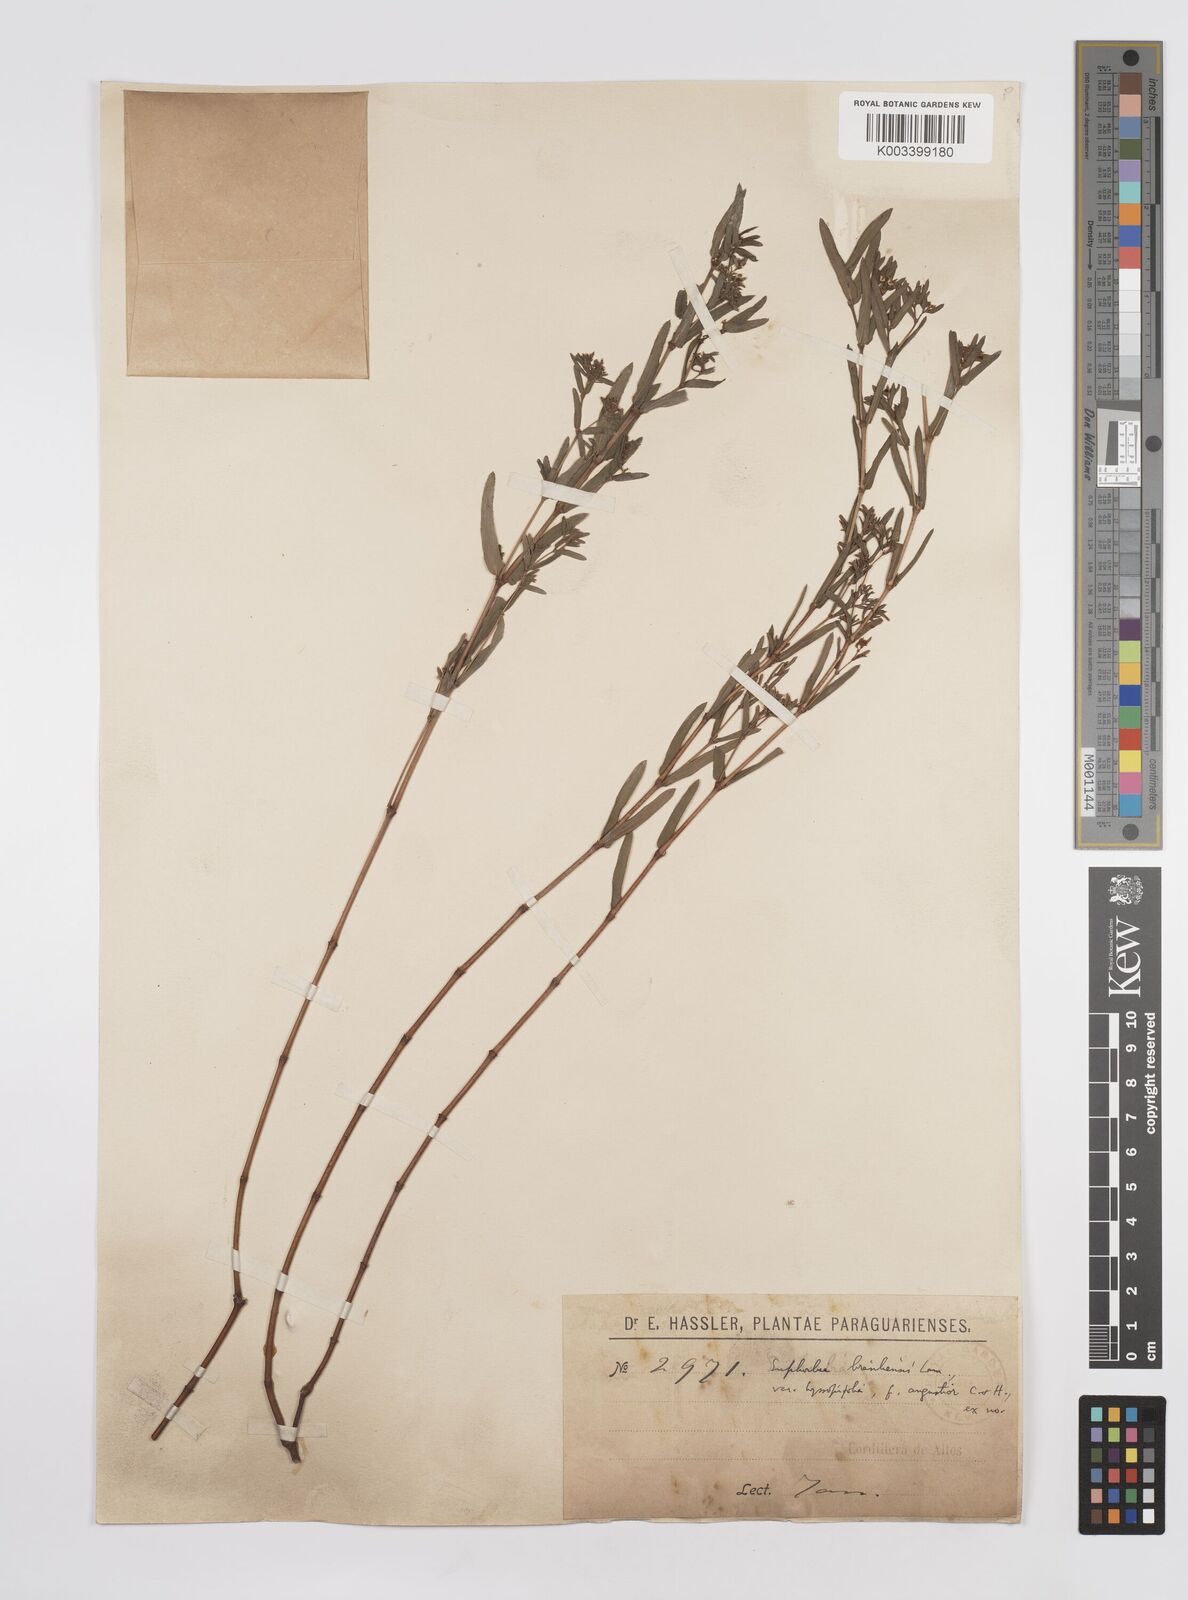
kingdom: Plantae
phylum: Tracheophyta
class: Magnoliopsida
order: Malpighiales
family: Euphorbiaceae
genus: Euphorbia
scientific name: Euphorbia hyssopifolia
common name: Hyssopleaf sandmat
